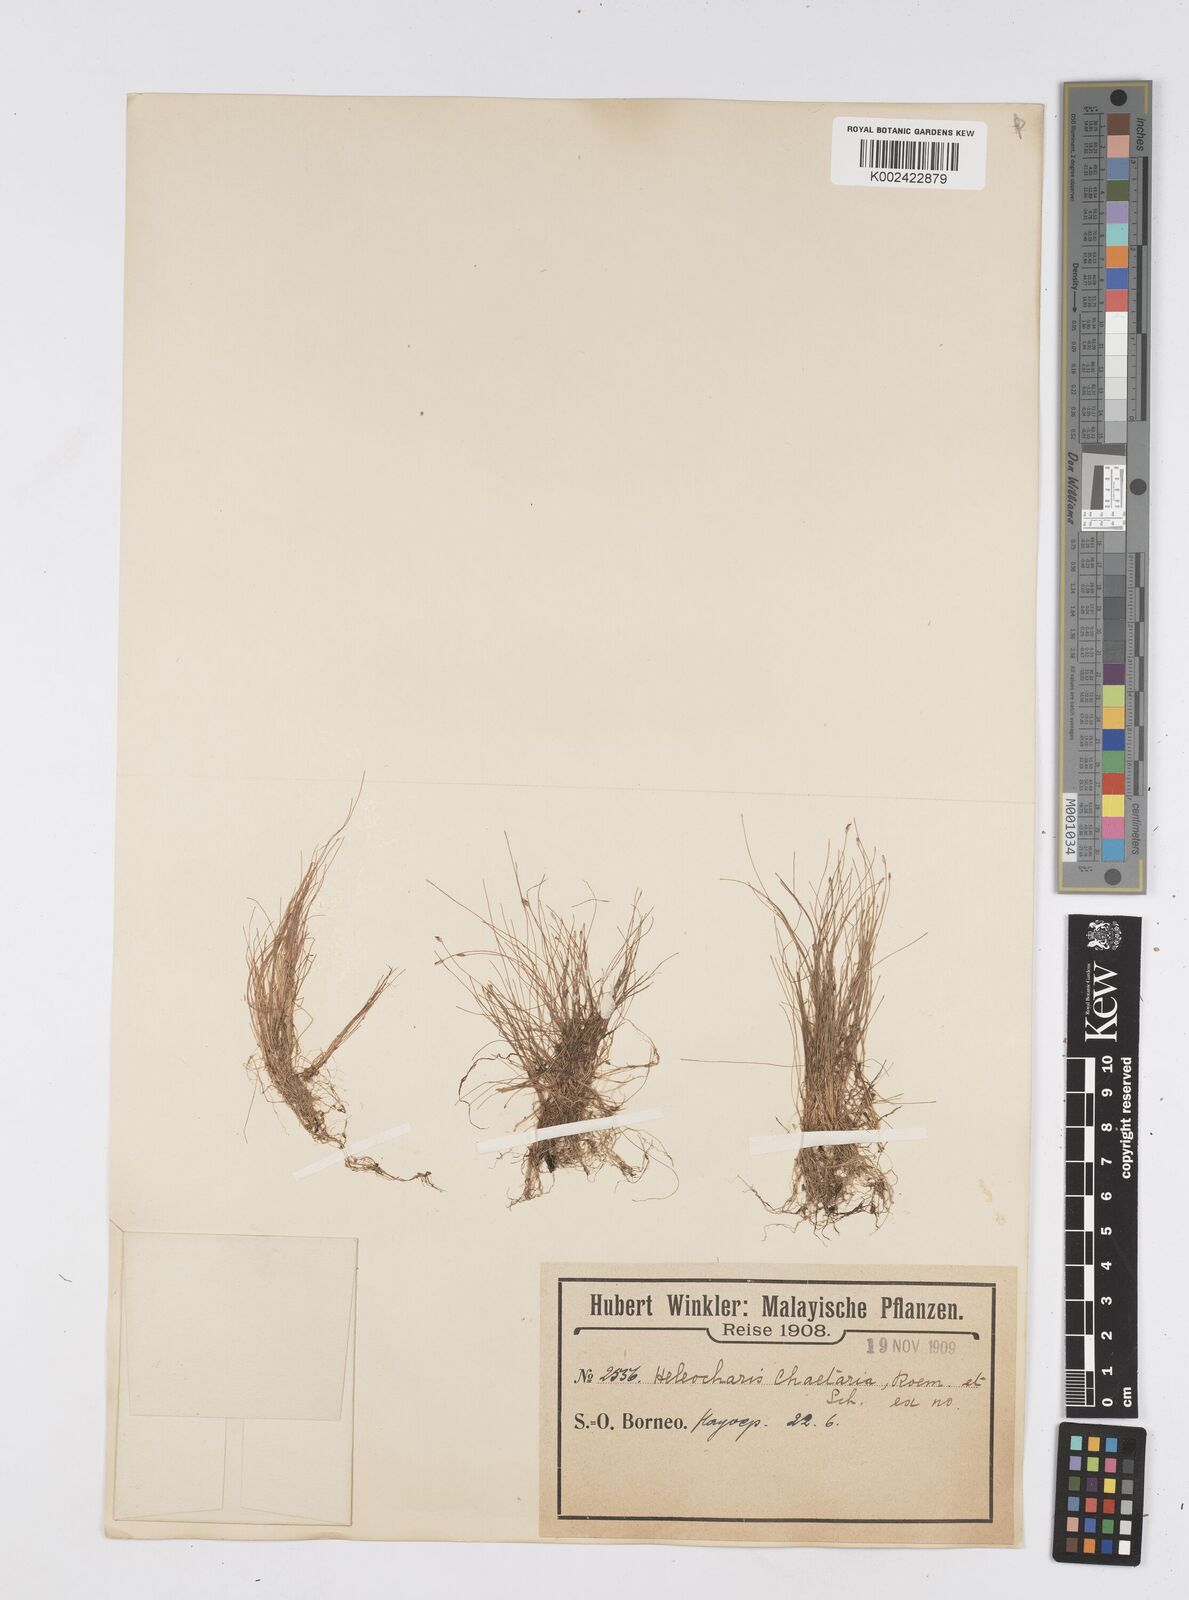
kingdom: Plantae
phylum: Tracheophyta
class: Liliopsida
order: Poales
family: Cyperaceae
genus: Eleocharis
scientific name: Eleocharis retroflexa
